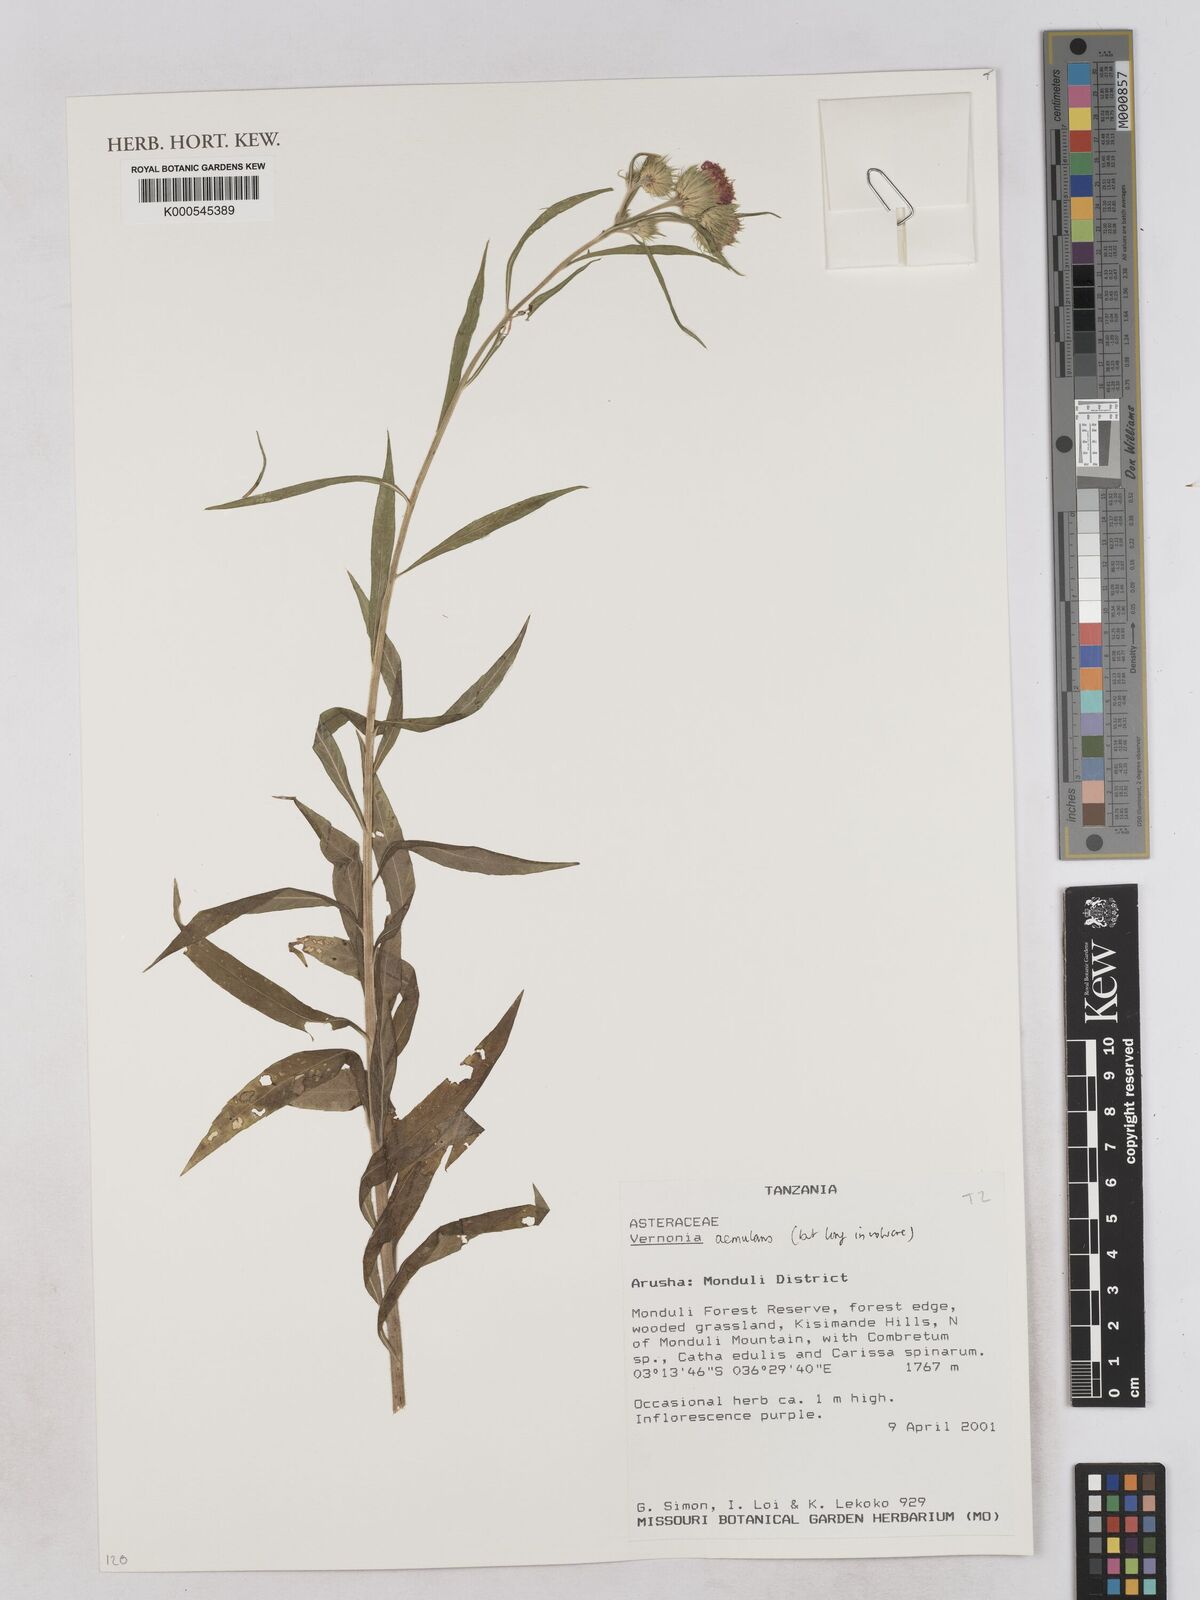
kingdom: Plantae
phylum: Tracheophyta
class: Magnoliopsida
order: Asterales
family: Asteraceae
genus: Vernoniastrum
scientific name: Vernoniastrum aemulans
